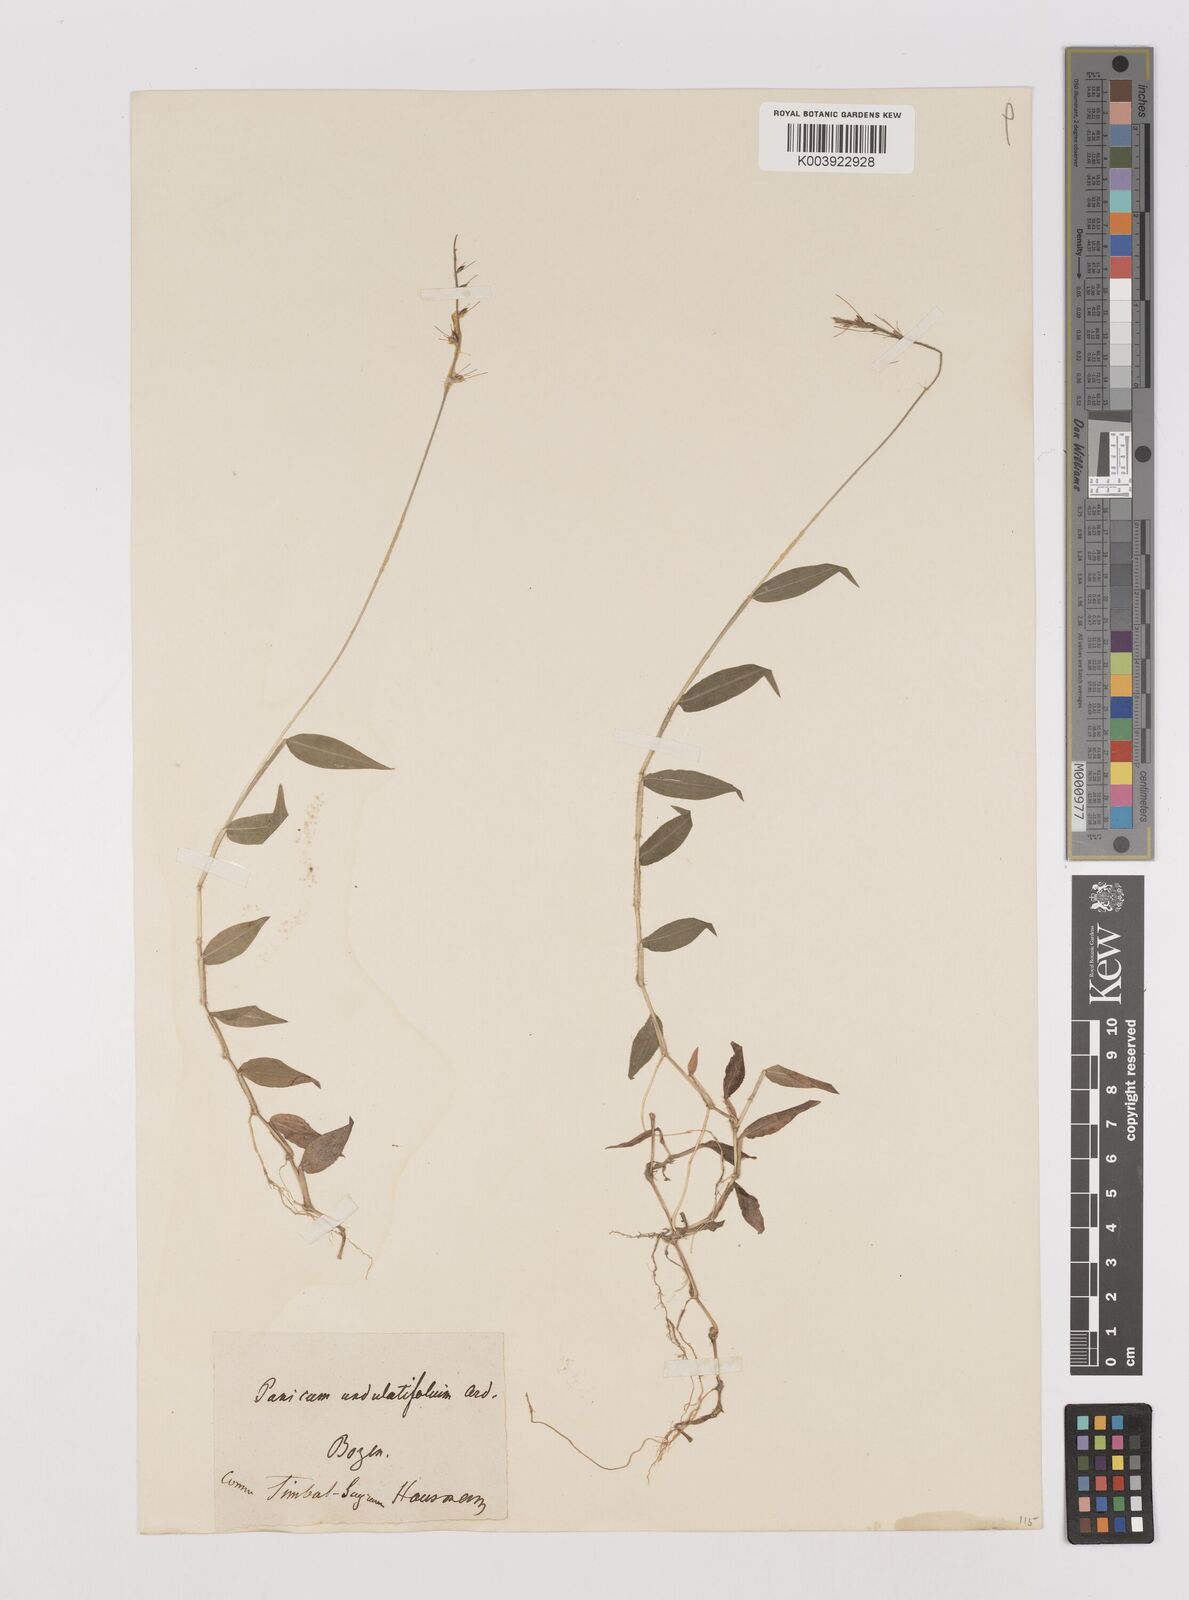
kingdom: Plantae
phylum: Tracheophyta
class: Liliopsida
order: Poales
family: Poaceae
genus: Oplismenus
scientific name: Oplismenus undulatifolius
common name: Wavyleaf basketgrass
